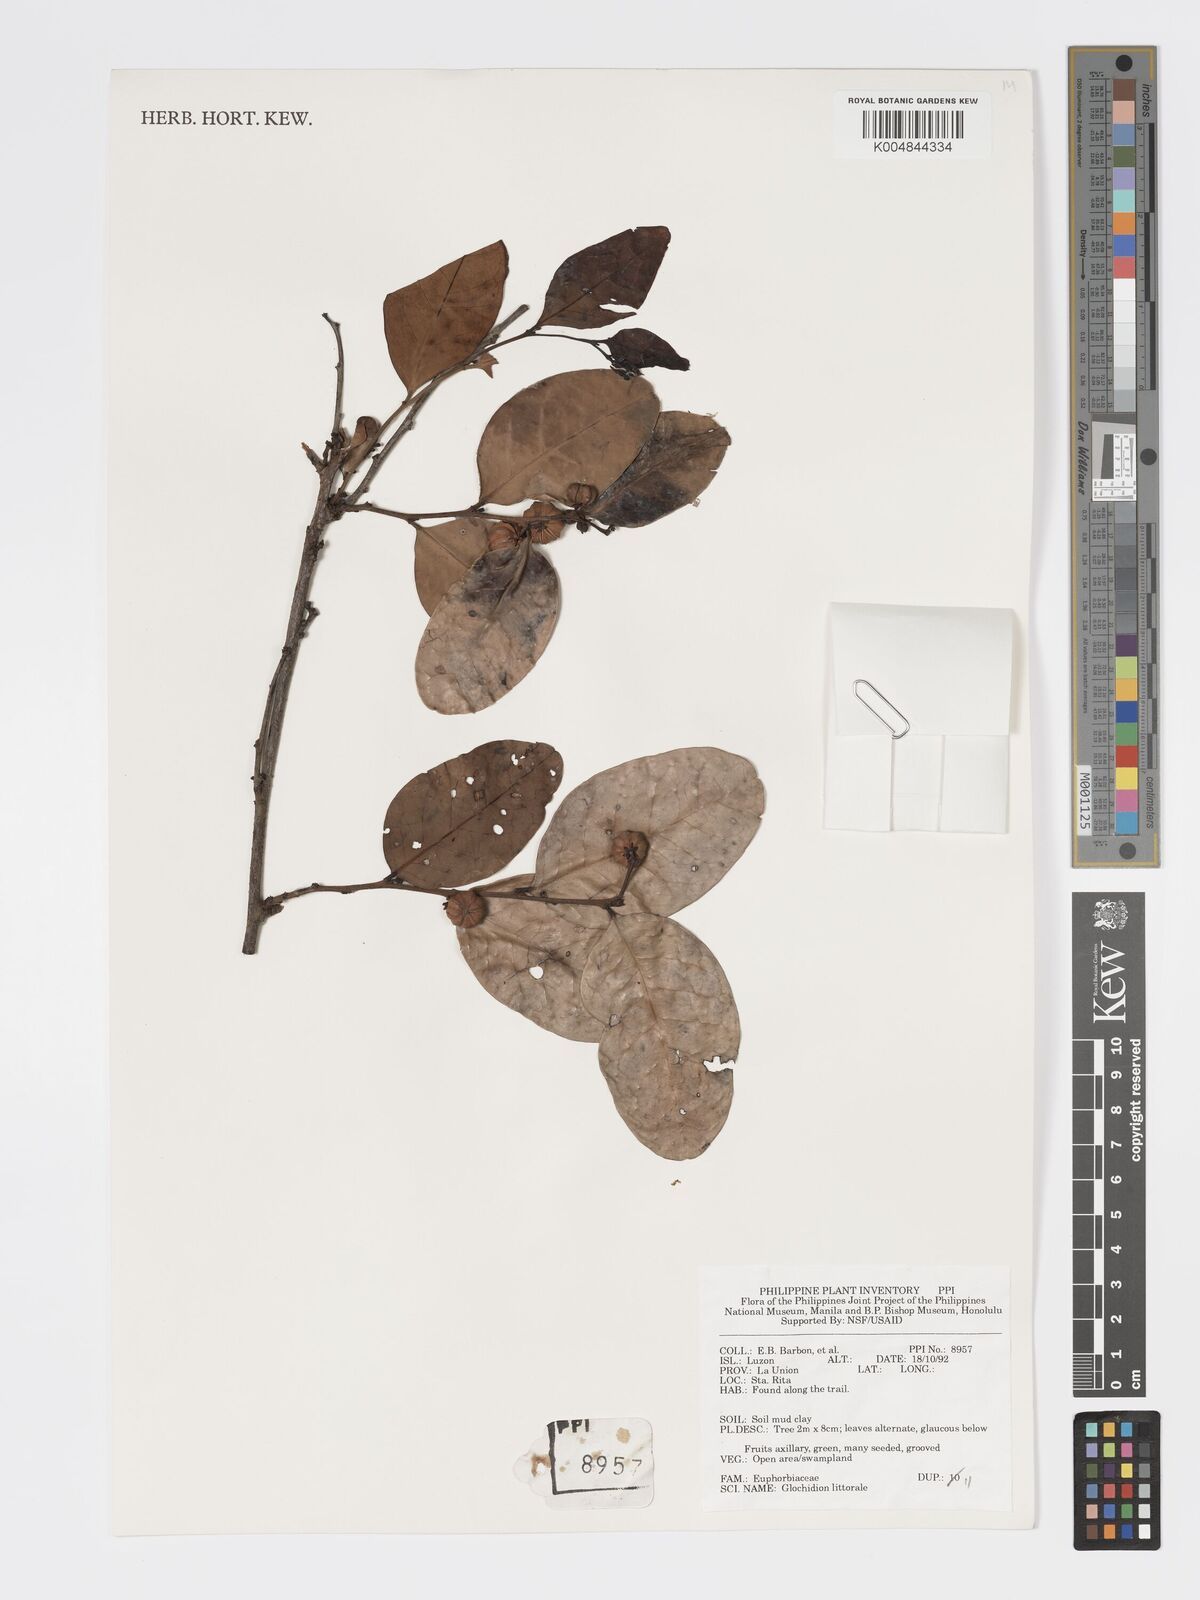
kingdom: Plantae
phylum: Tracheophyta
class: Magnoliopsida
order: Malpighiales
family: Phyllanthaceae
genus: Glochidion
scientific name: Glochidion
